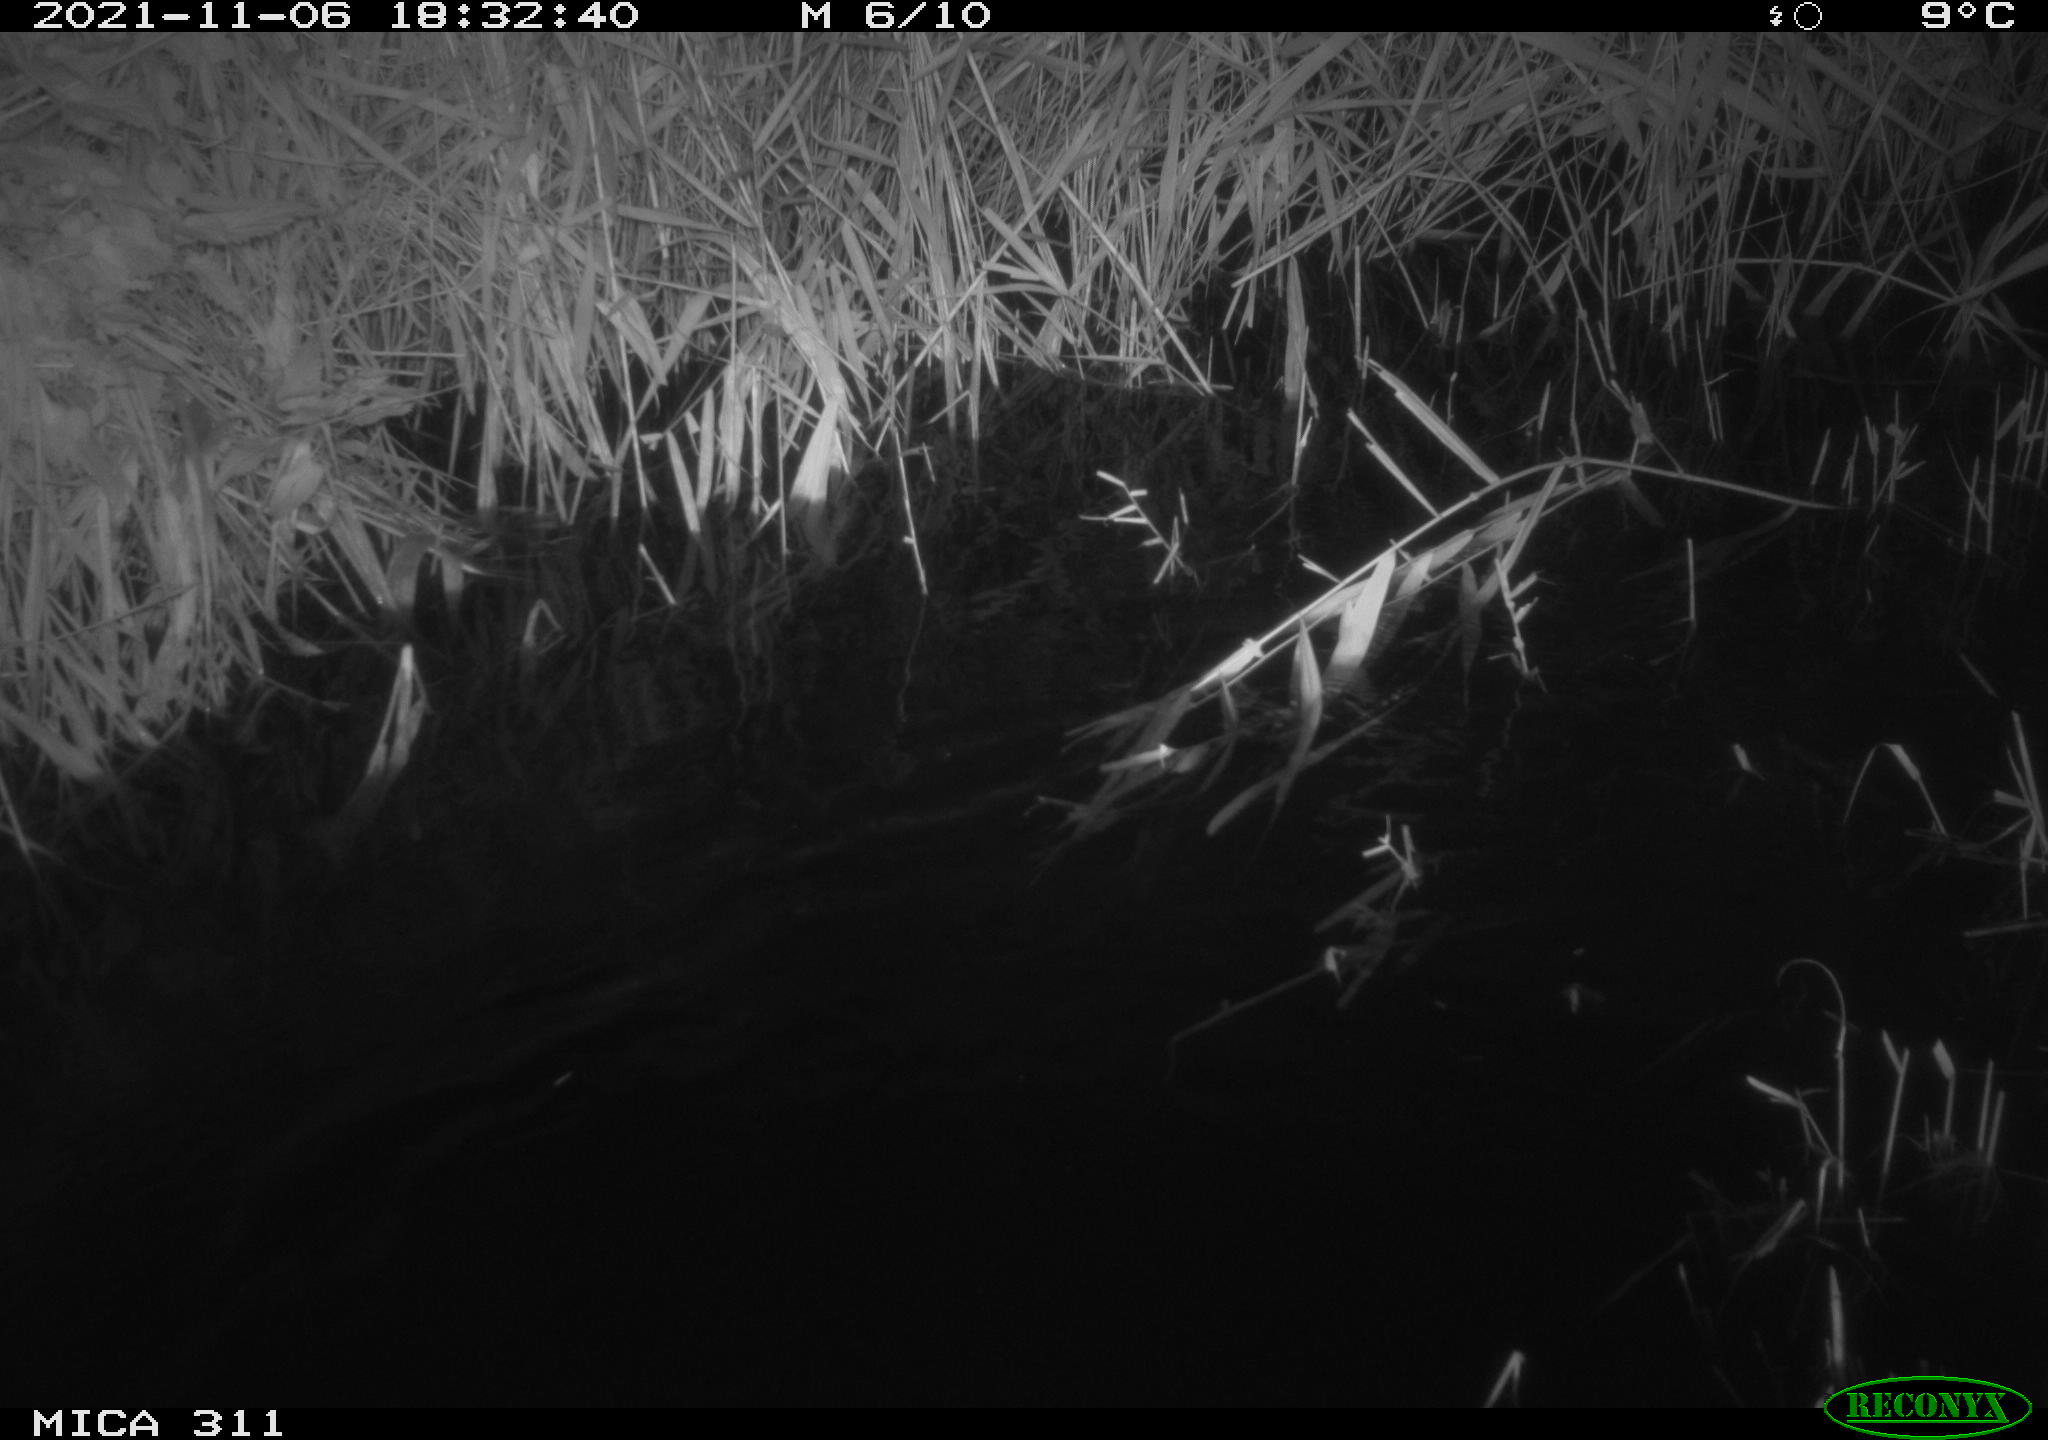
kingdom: Animalia
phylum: Chordata
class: Mammalia
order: Rodentia
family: Muridae
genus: Rattus
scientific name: Rattus norvegicus
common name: Brown rat
